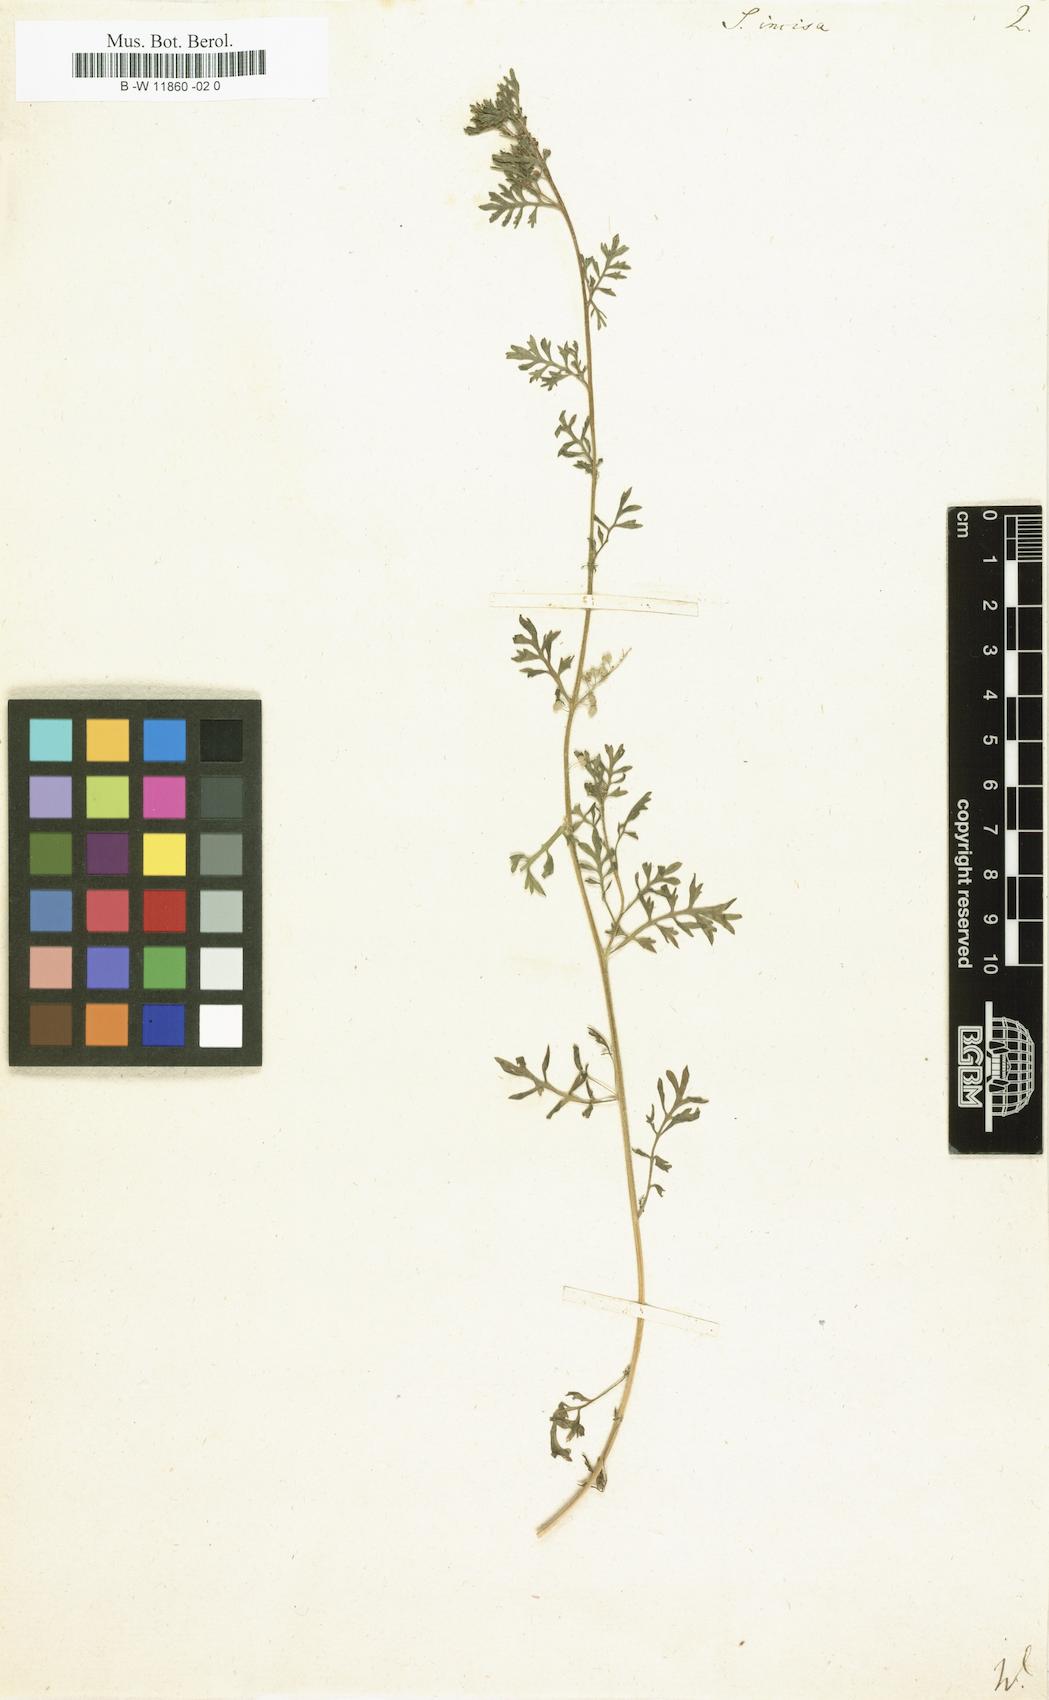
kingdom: Plantae
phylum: Tracheophyta
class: Magnoliopsida
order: Brassicales
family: Brassicaceae
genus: Lepidium
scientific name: Lepidium
